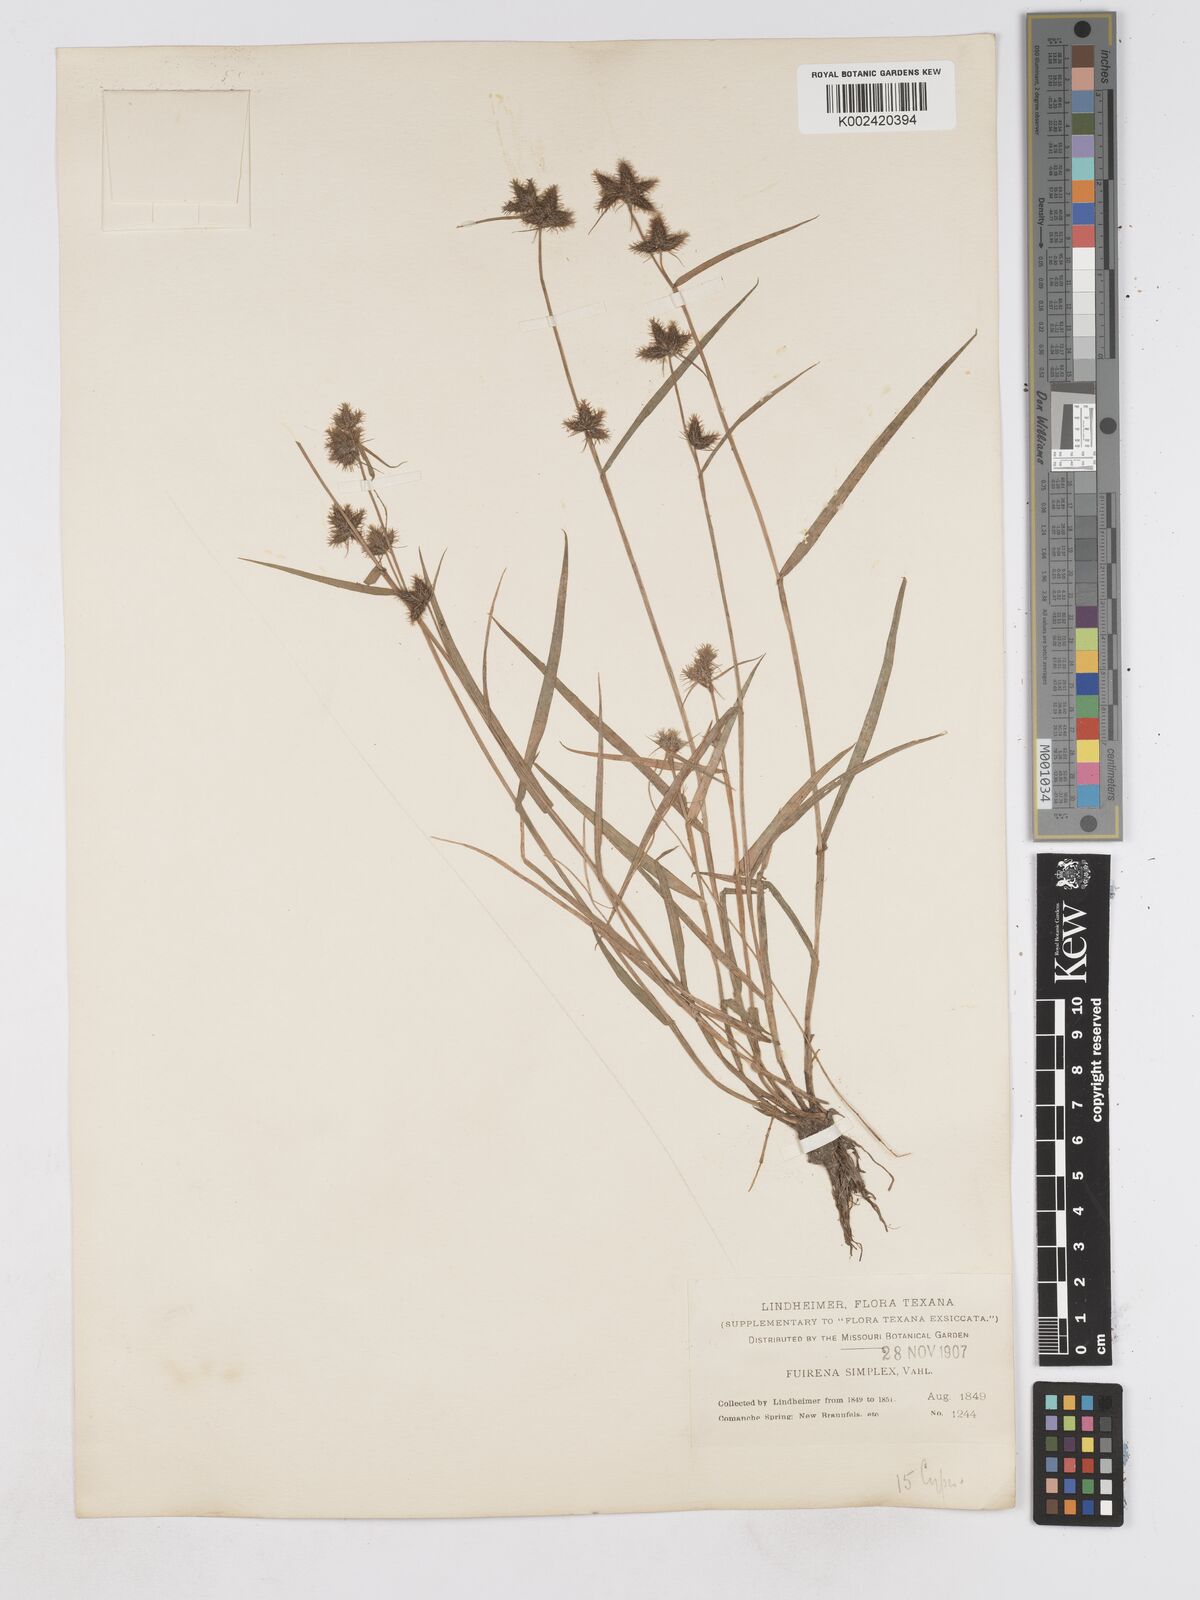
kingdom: Plantae
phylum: Tracheophyta
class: Liliopsida
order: Poales
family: Cyperaceae
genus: Fuirena
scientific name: Fuirena simplex
